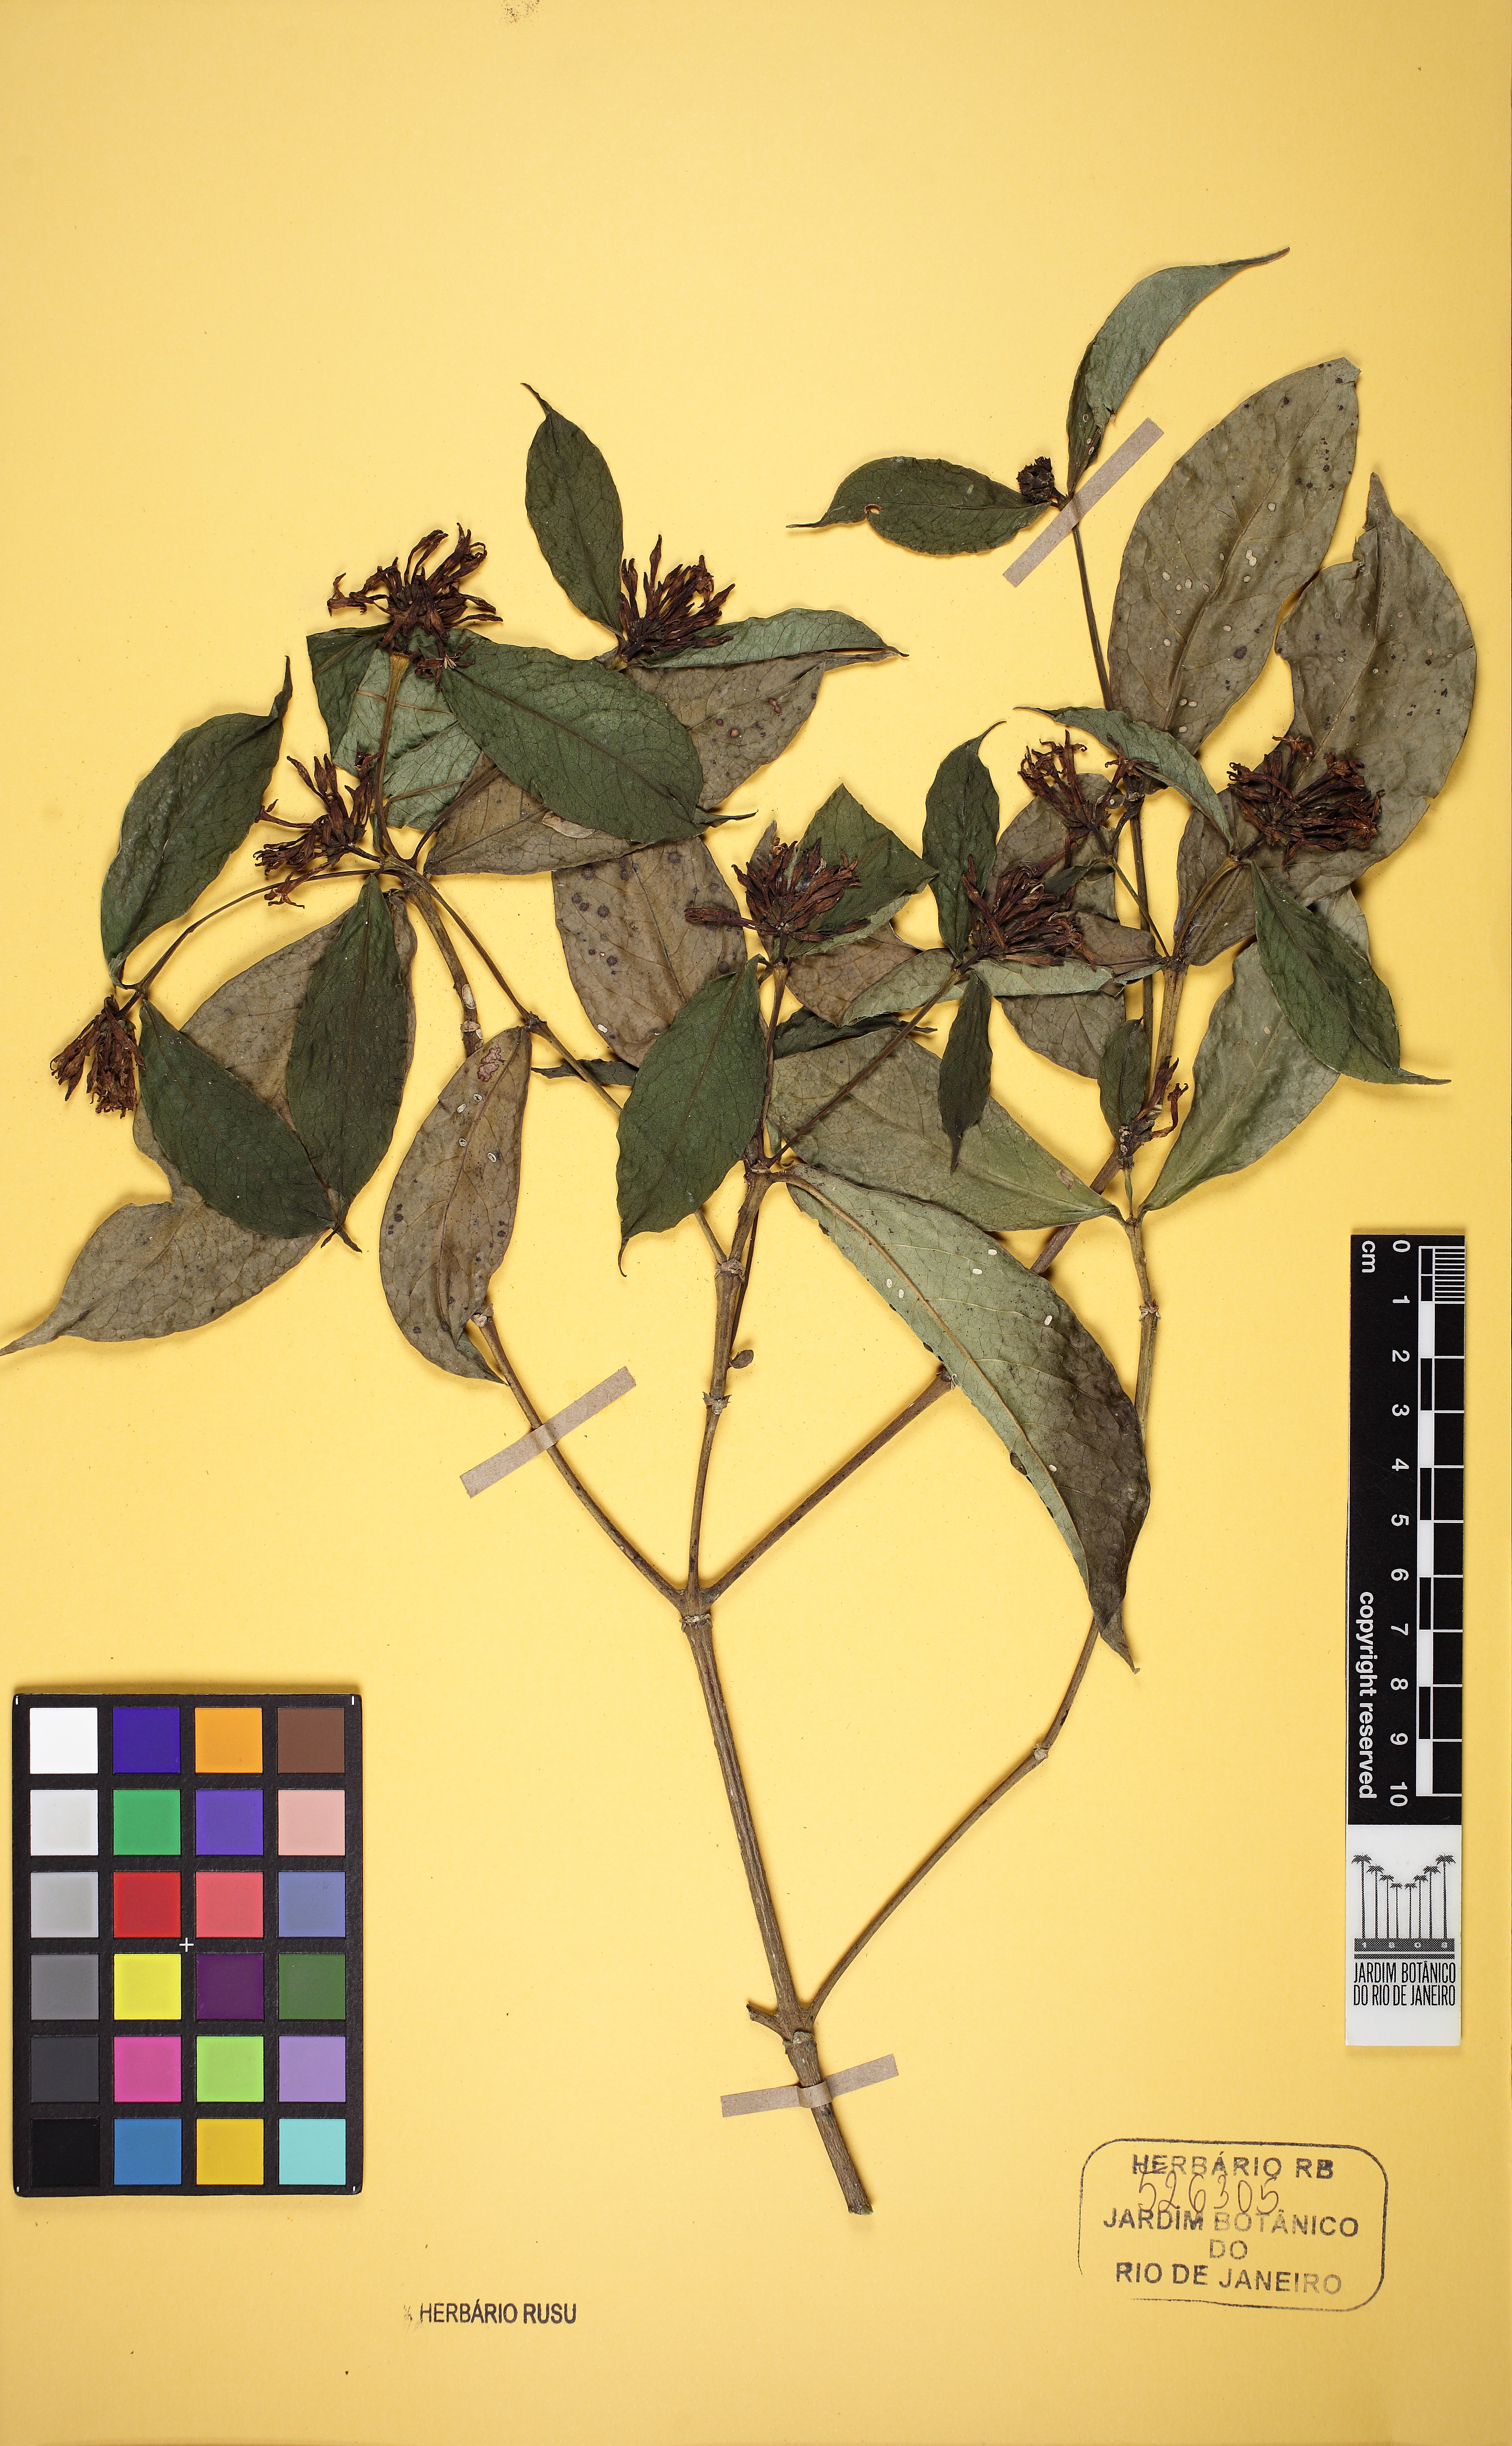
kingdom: Plantae
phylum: Tracheophyta
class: Magnoliopsida
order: Gentianales
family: Rubiaceae
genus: Coussarea
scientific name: Coussarea capitata
